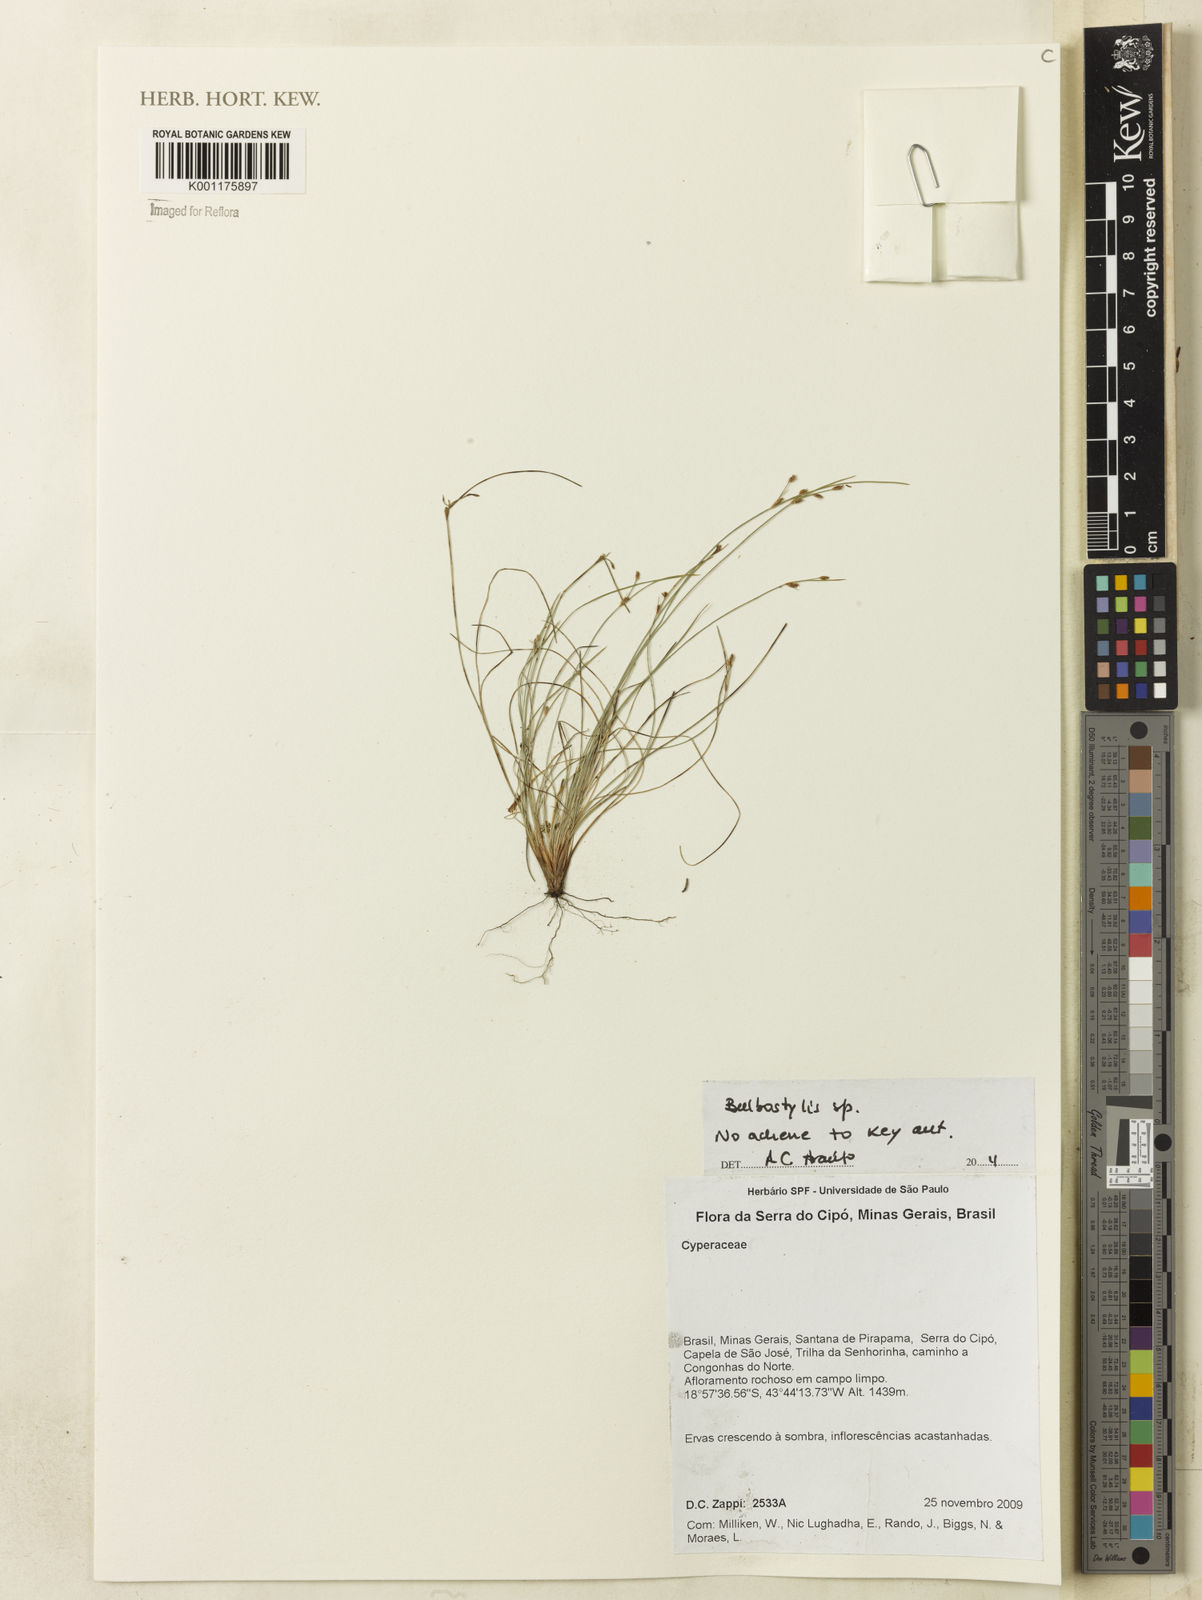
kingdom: Plantae
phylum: Tracheophyta
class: Liliopsida
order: Poales
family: Cyperaceae
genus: Bulbostylis
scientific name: Bulbostylis
